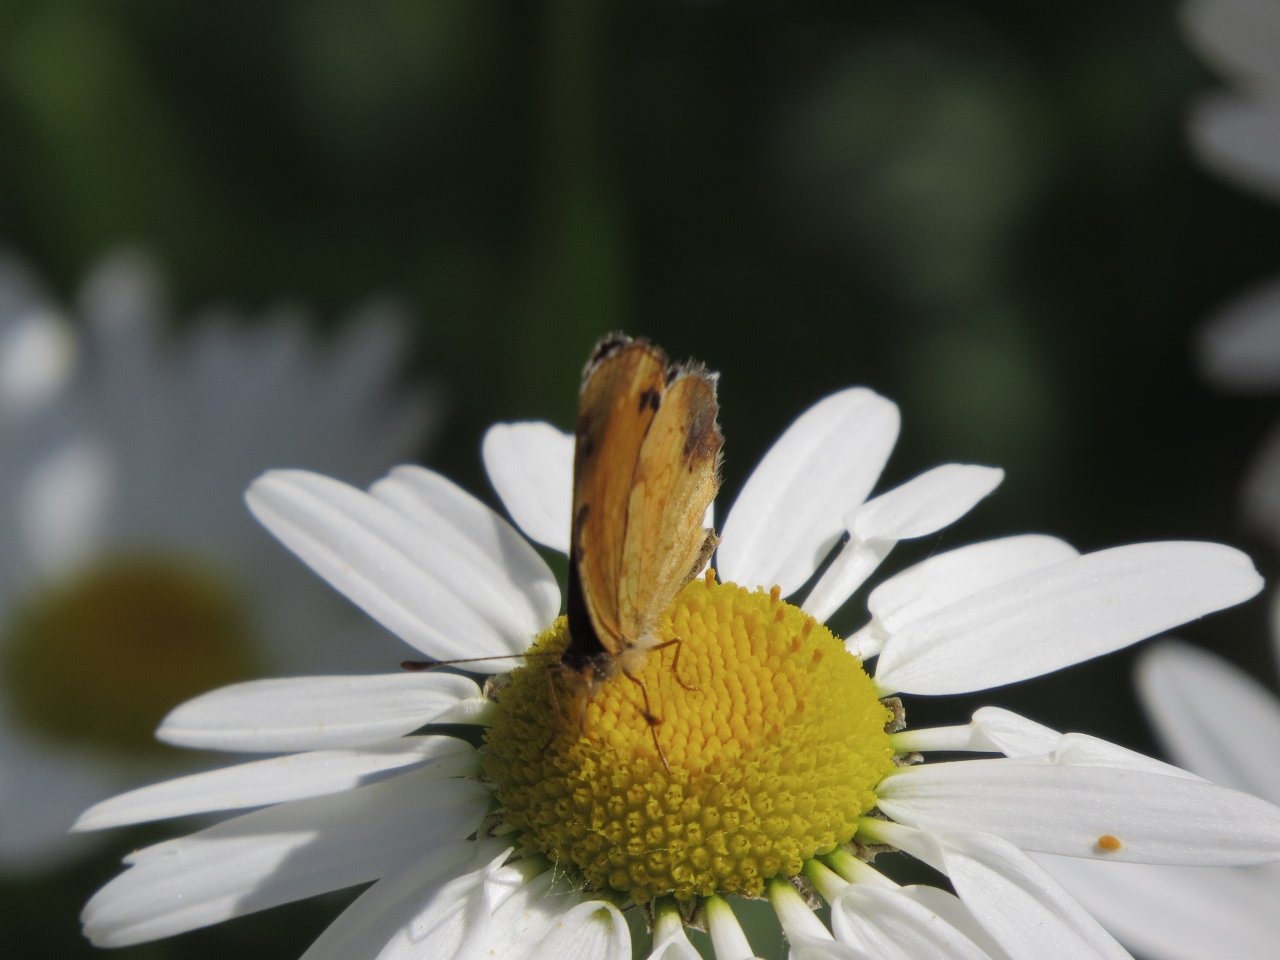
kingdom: Animalia
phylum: Arthropoda
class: Insecta
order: Lepidoptera
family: Nymphalidae
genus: Phyciodes
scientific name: Phyciodes tharos
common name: Northern Crescent
